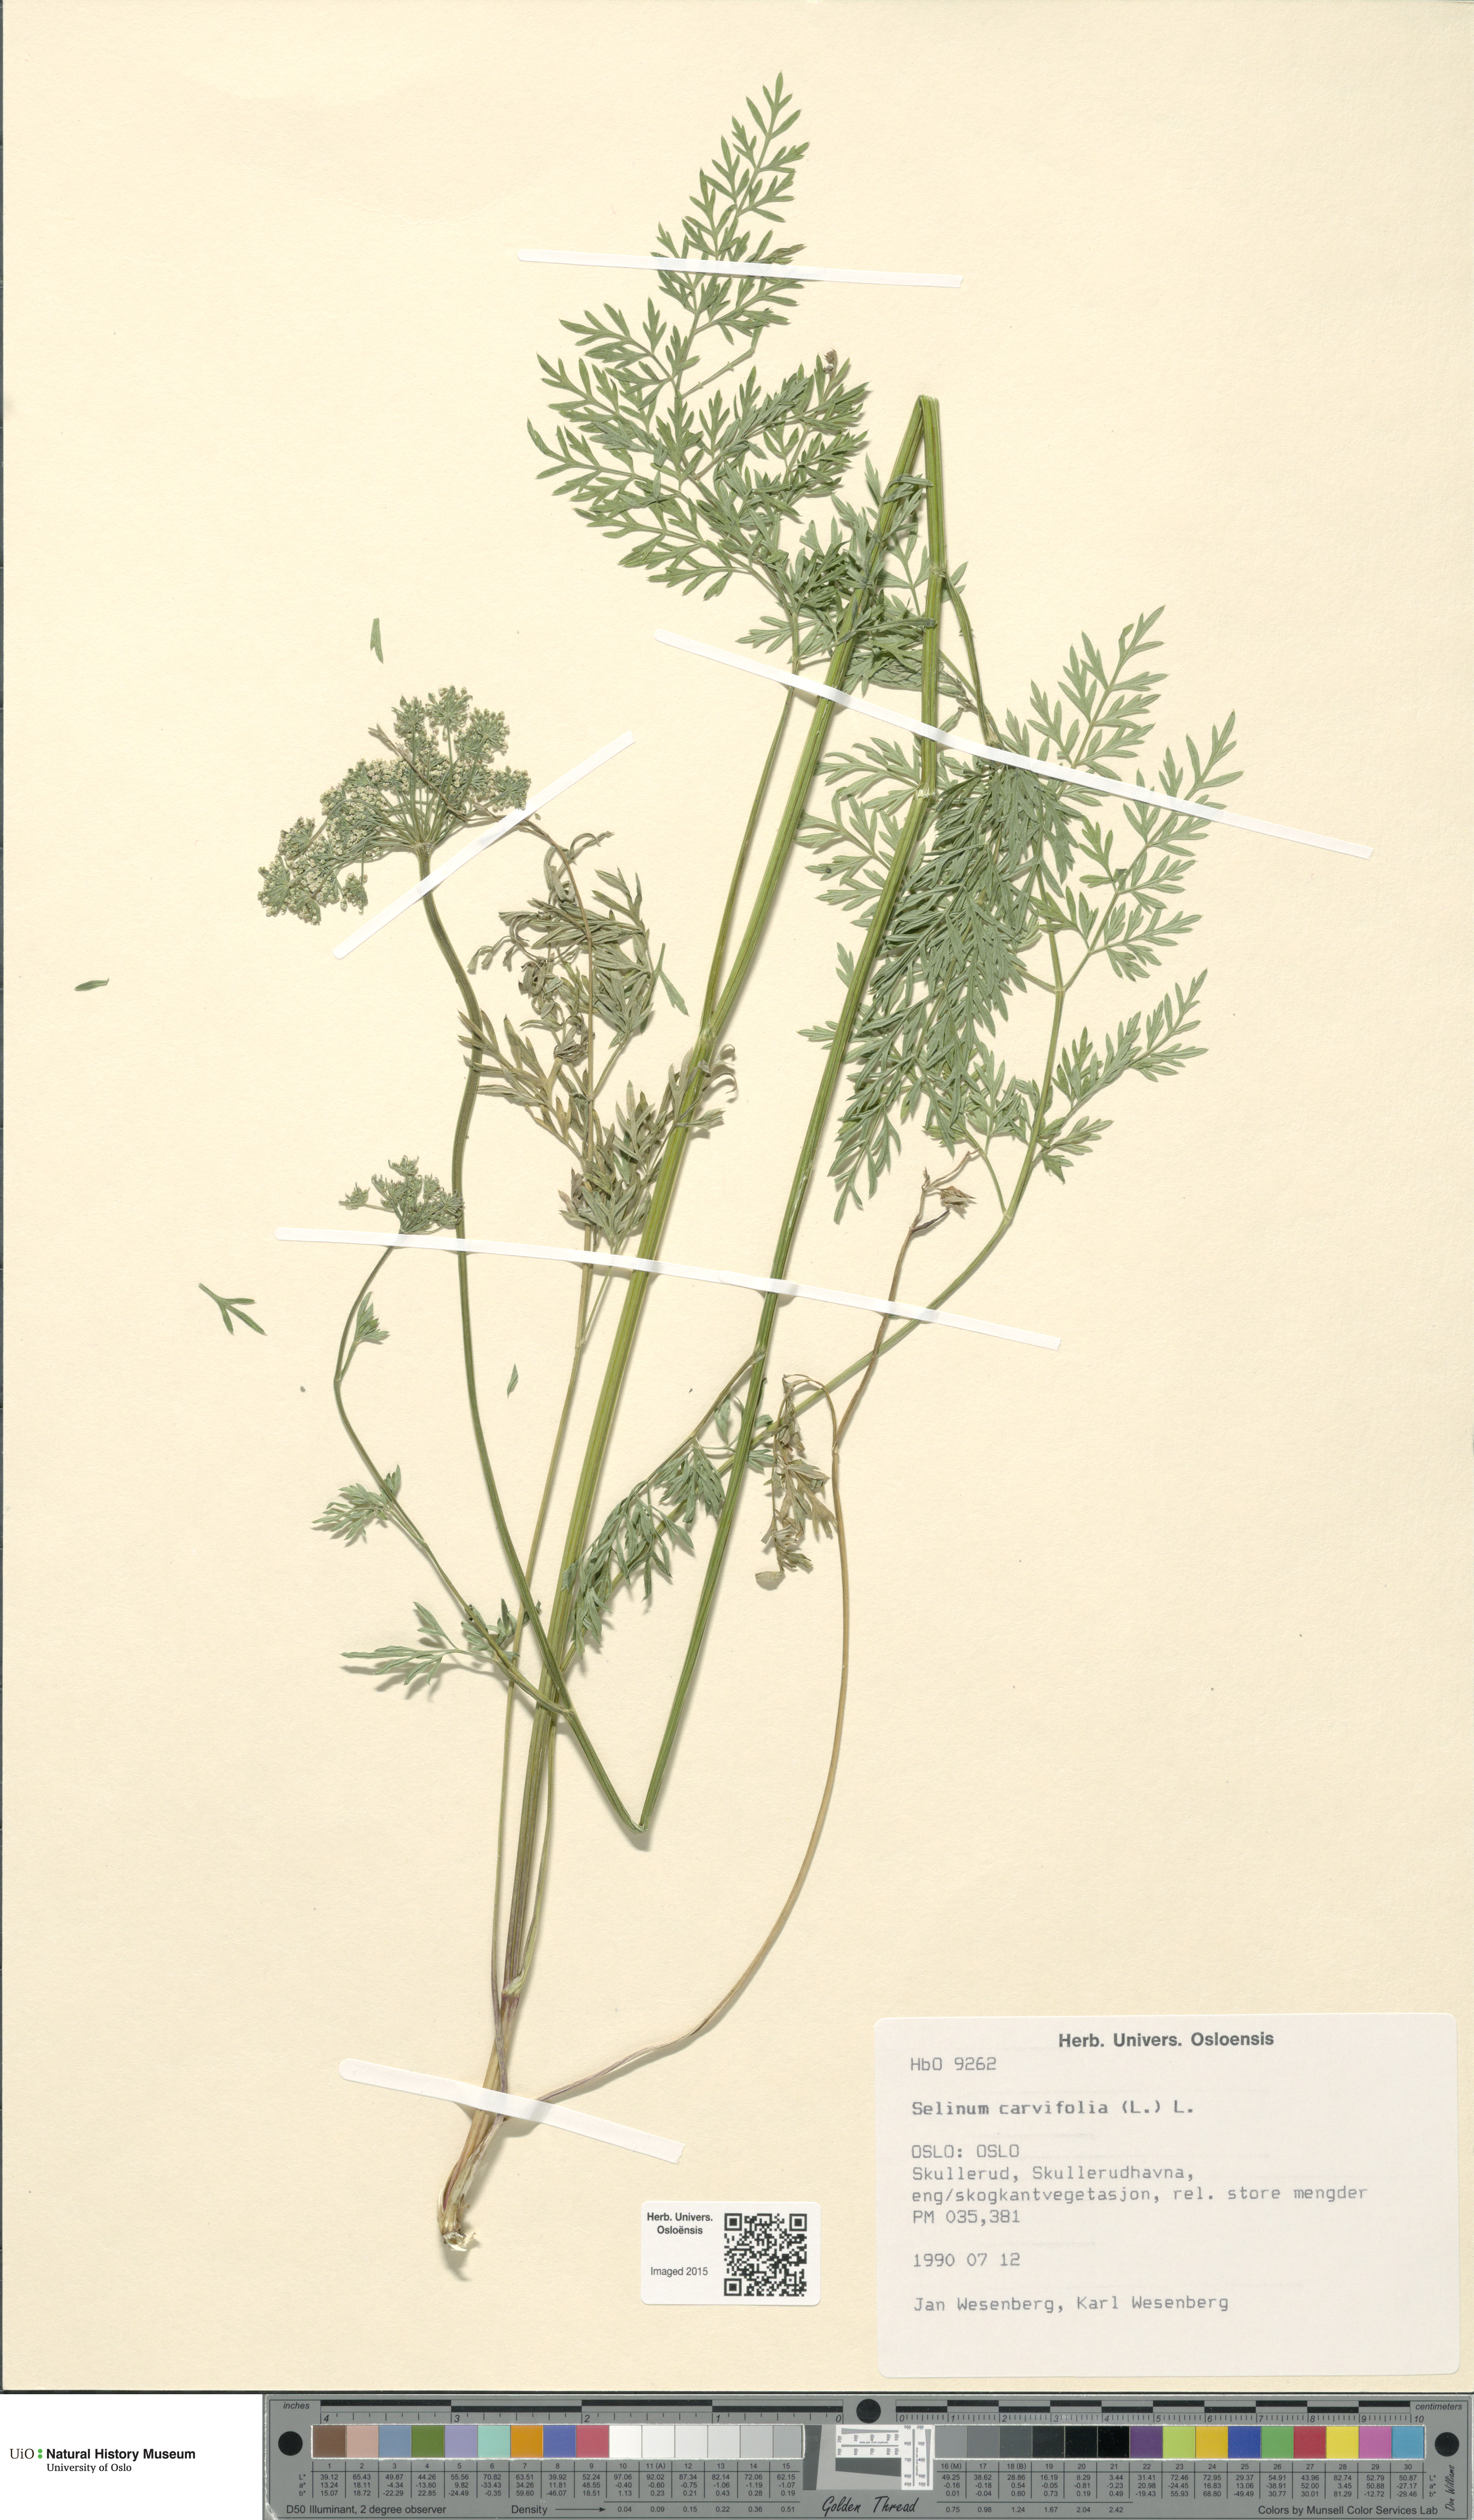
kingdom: Plantae
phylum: Tracheophyta
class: Magnoliopsida
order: Apiales
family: Apiaceae
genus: Selinum
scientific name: Selinum carvifolia
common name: Cambridge milk-parsley
